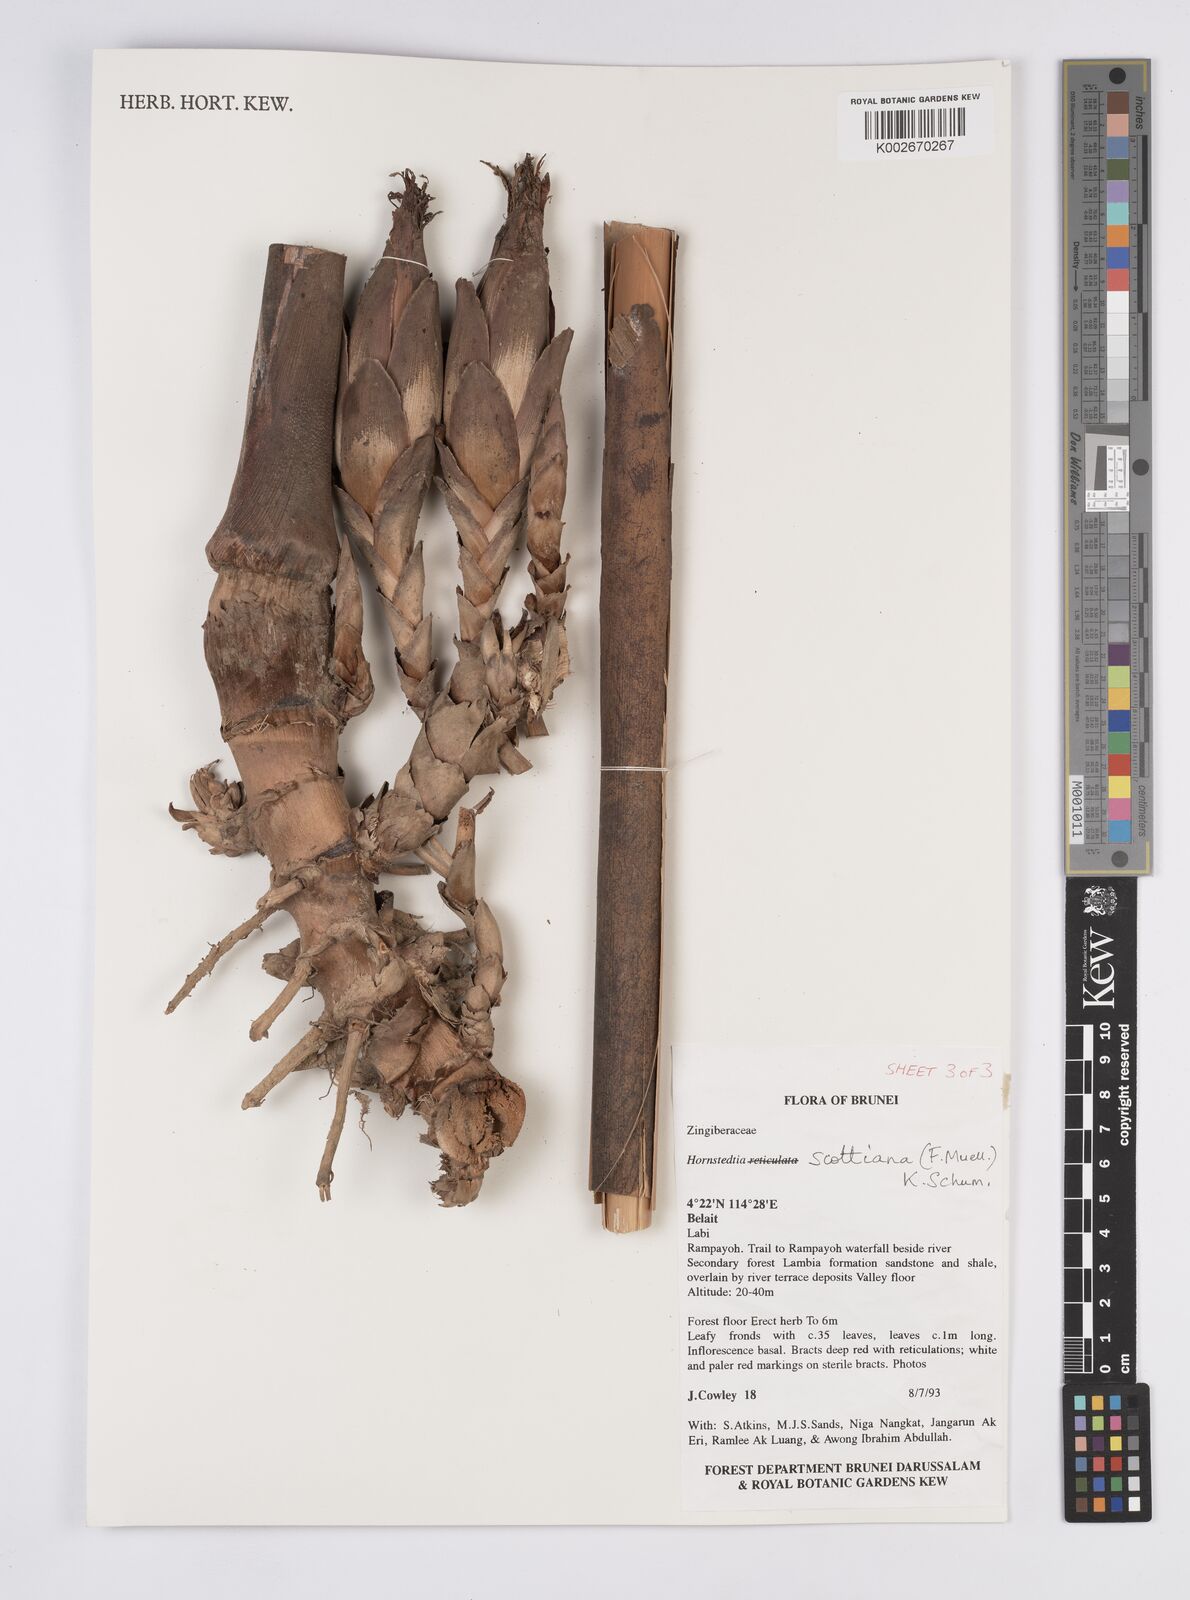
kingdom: Plantae
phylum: Tracheophyta
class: Liliopsida
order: Zingiberales
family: Zingiberaceae
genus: Hornstedtia
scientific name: Hornstedtia scottiana
